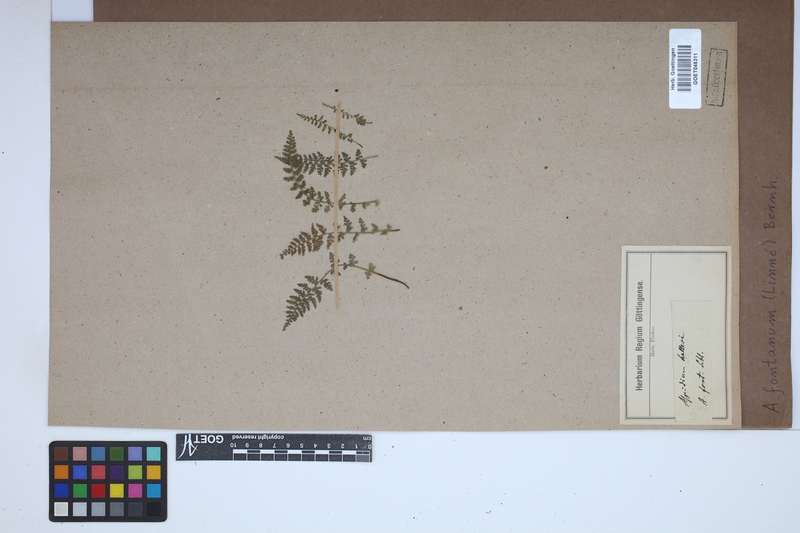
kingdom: Plantae
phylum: Tracheophyta
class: Polypodiopsida
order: Polypodiales
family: Aspleniaceae
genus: Asplenium
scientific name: Asplenium fontanum
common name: Fountain spleenwort
